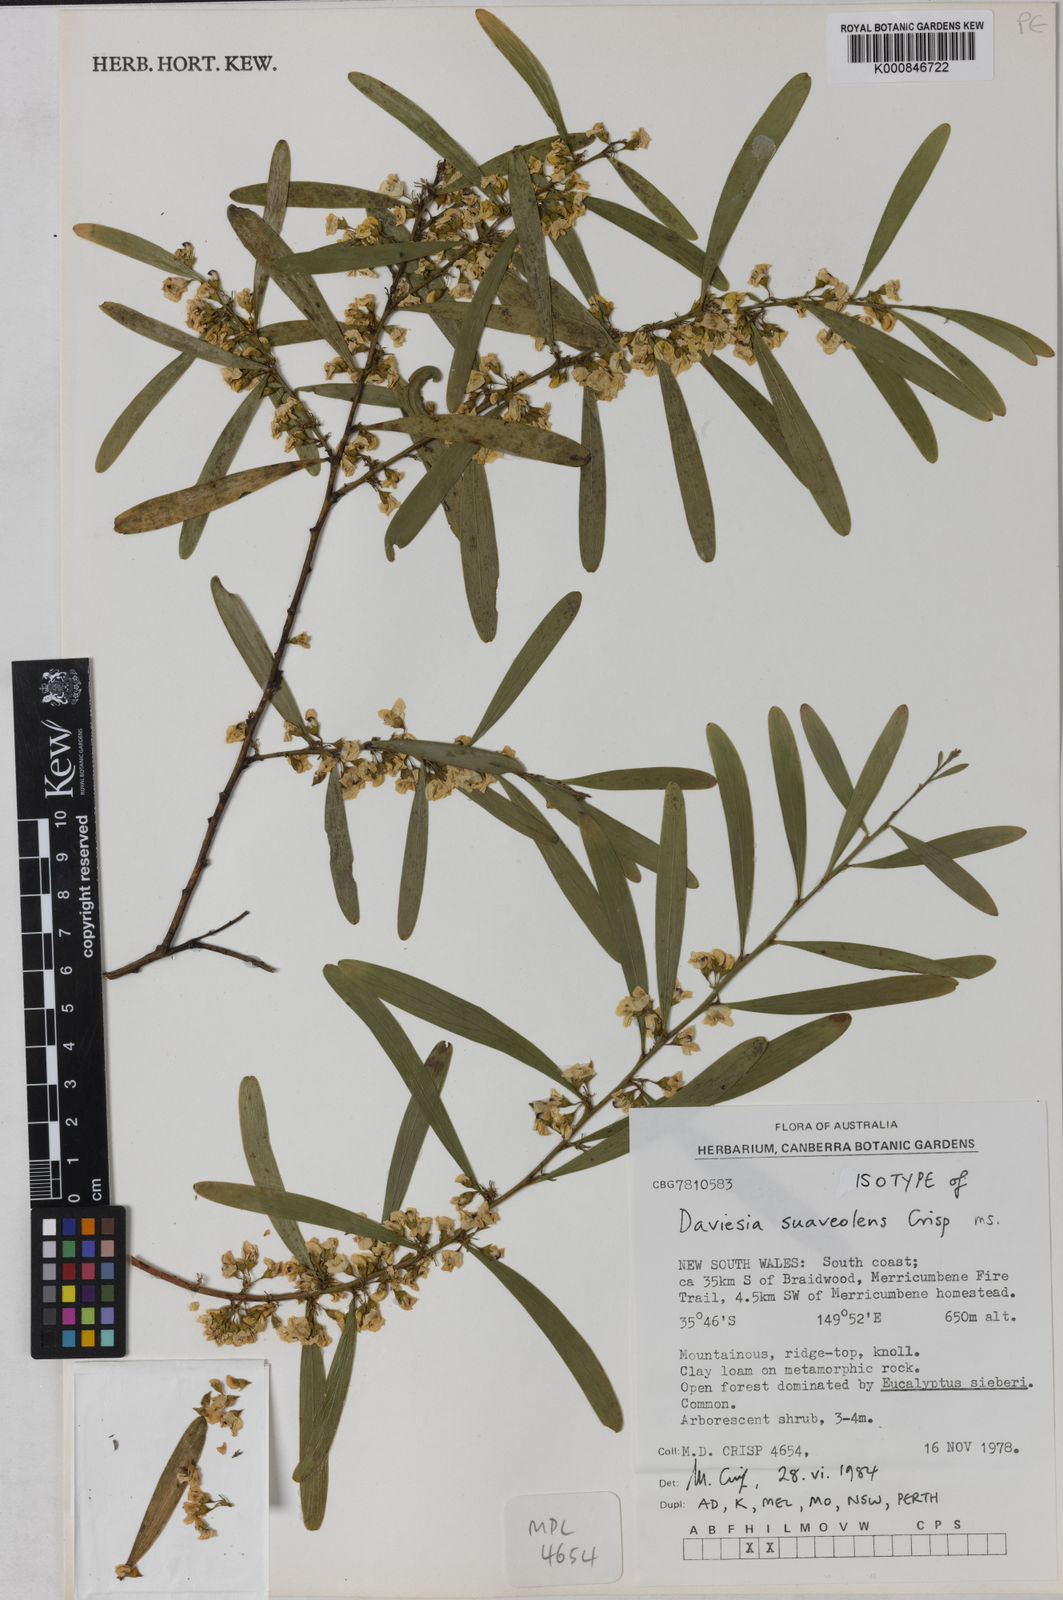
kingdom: Plantae
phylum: Tracheophyta
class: Magnoliopsida
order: Fabales
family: Fabaceae
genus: Daviesia
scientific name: Daviesia suaveolens
